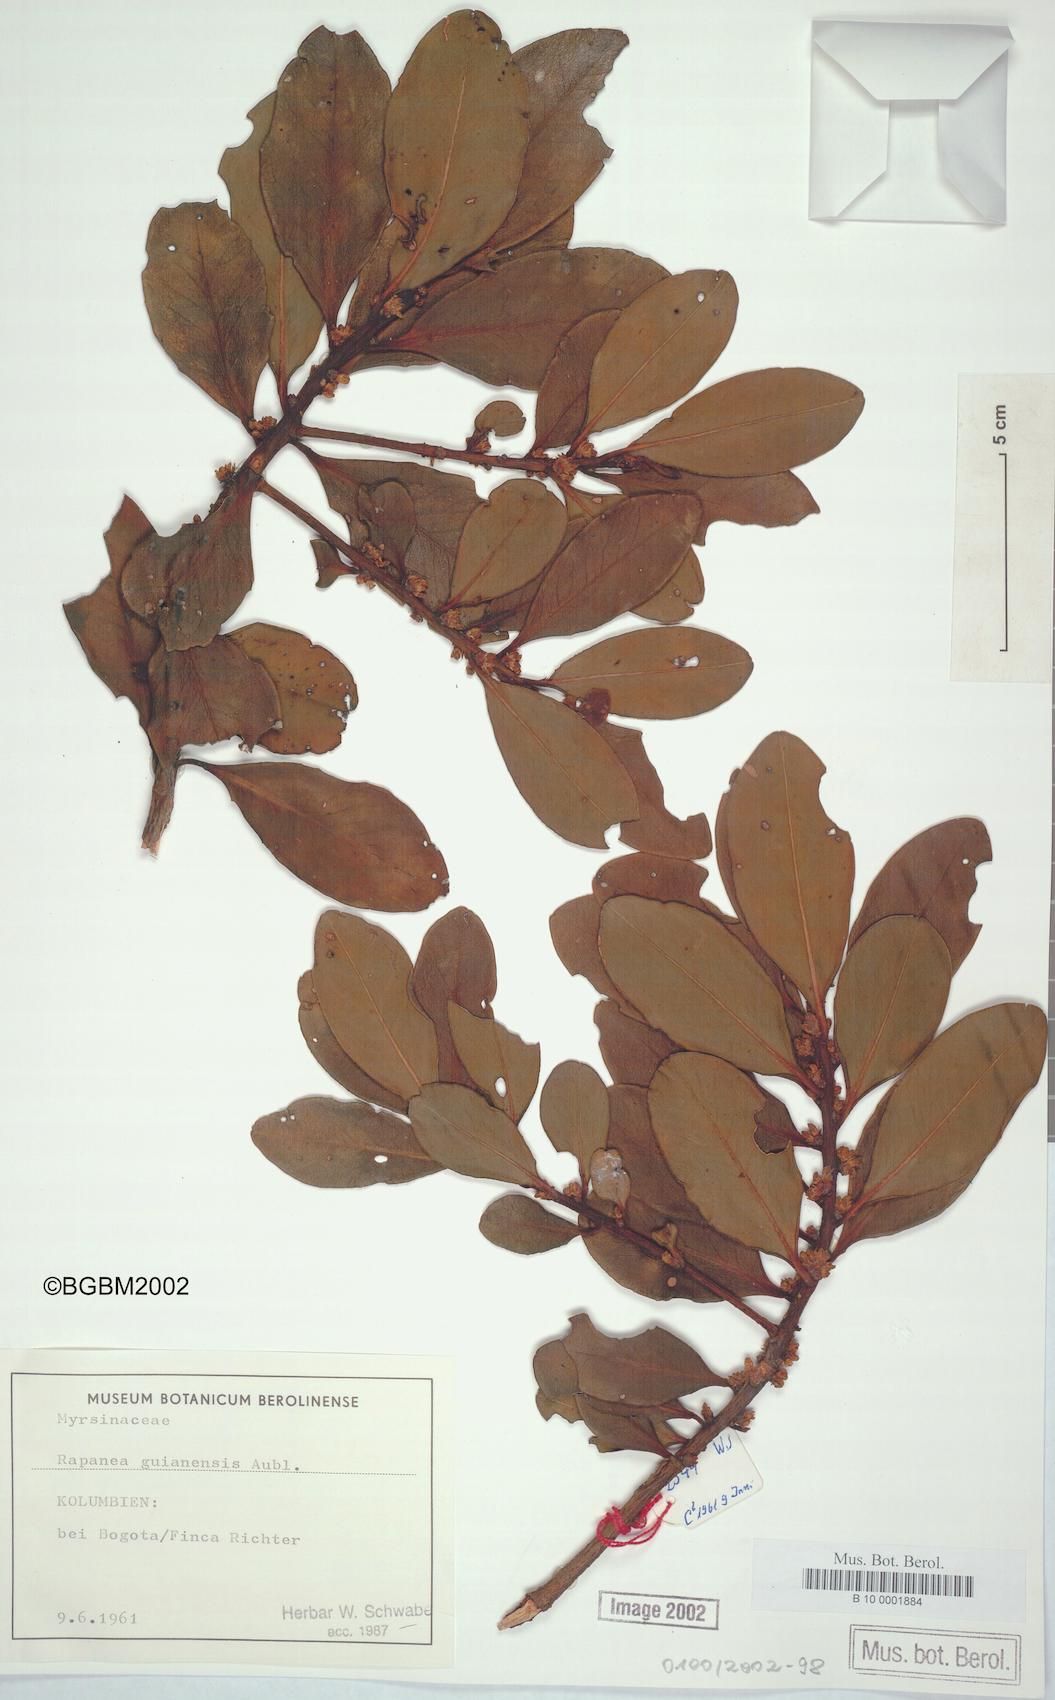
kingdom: Plantae
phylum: Tracheophyta
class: Magnoliopsida
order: Ericales
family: Primulaceae
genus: Myrsine
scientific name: Myrsine guianensis
